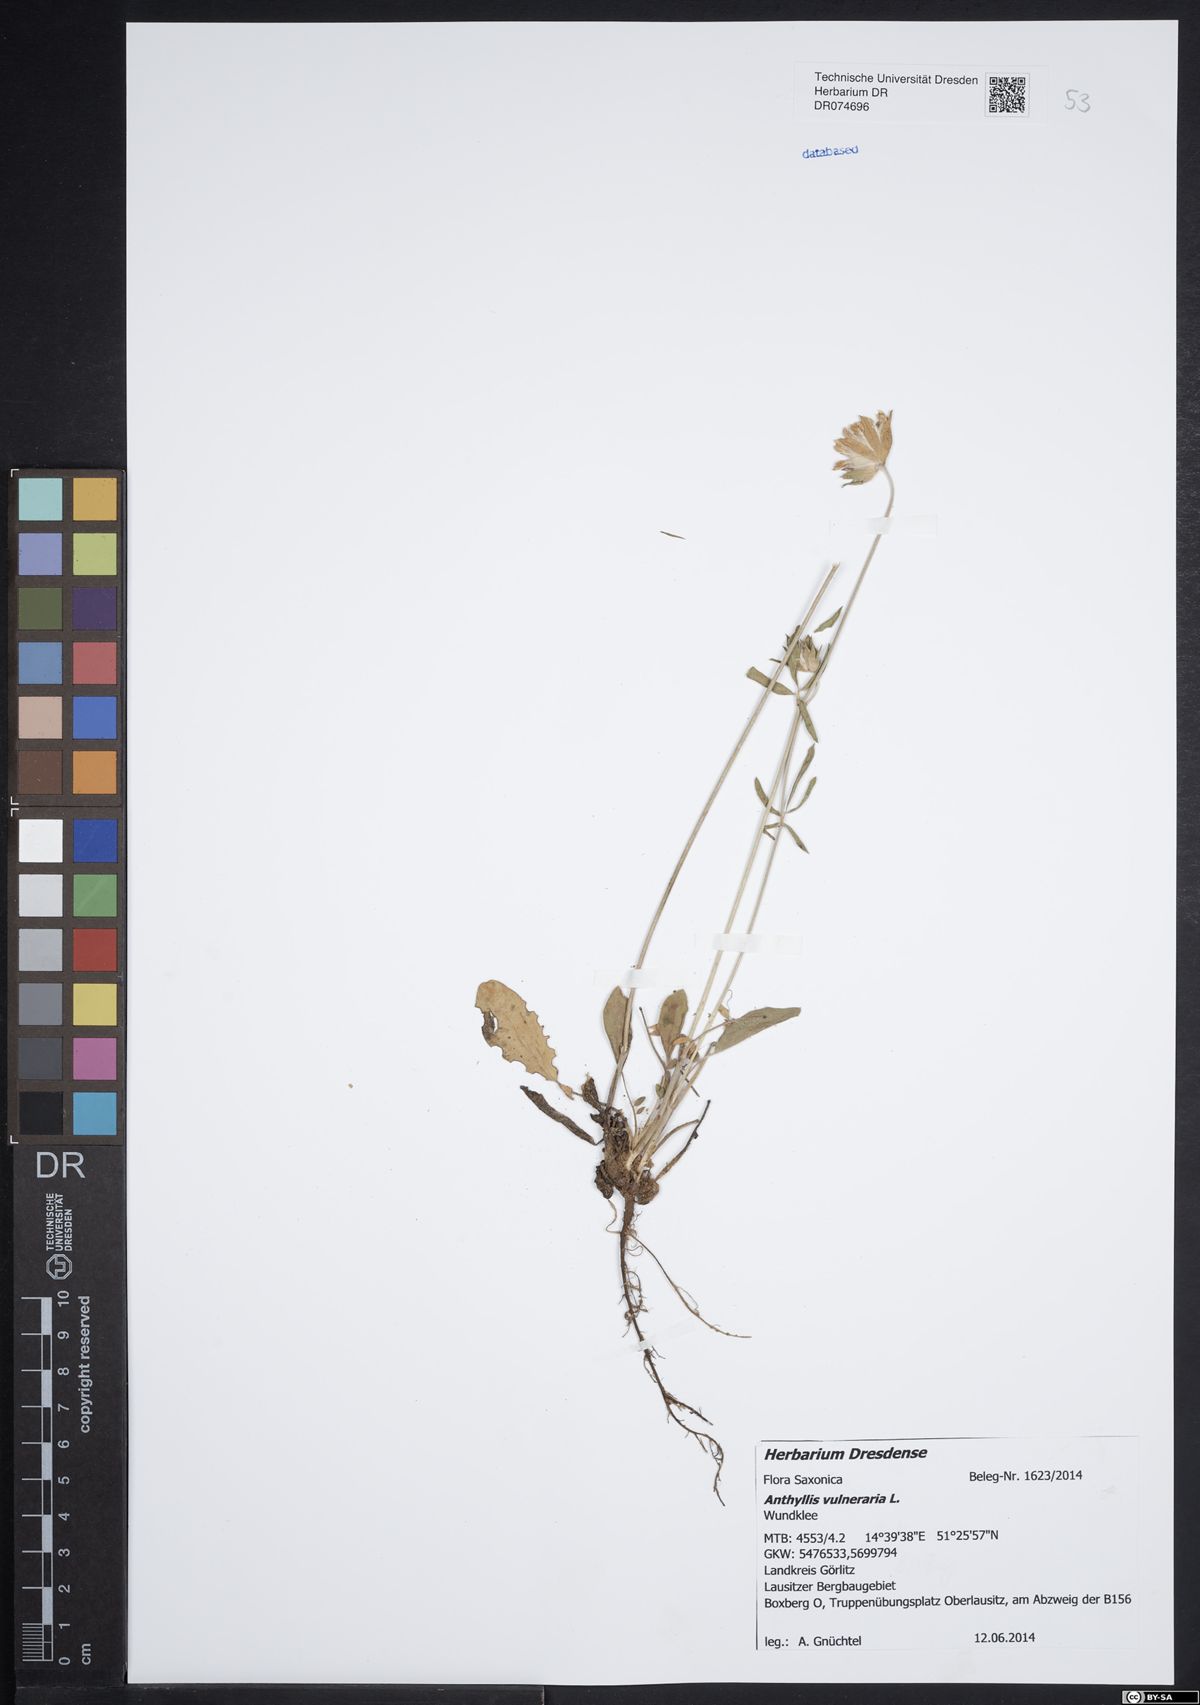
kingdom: Plantae
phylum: Tracheophyta
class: Magnoliopsida
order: Fabales
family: Fabaceae
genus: Anthyllis
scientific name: Anthyllis vulneraria
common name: Kidney vetch
